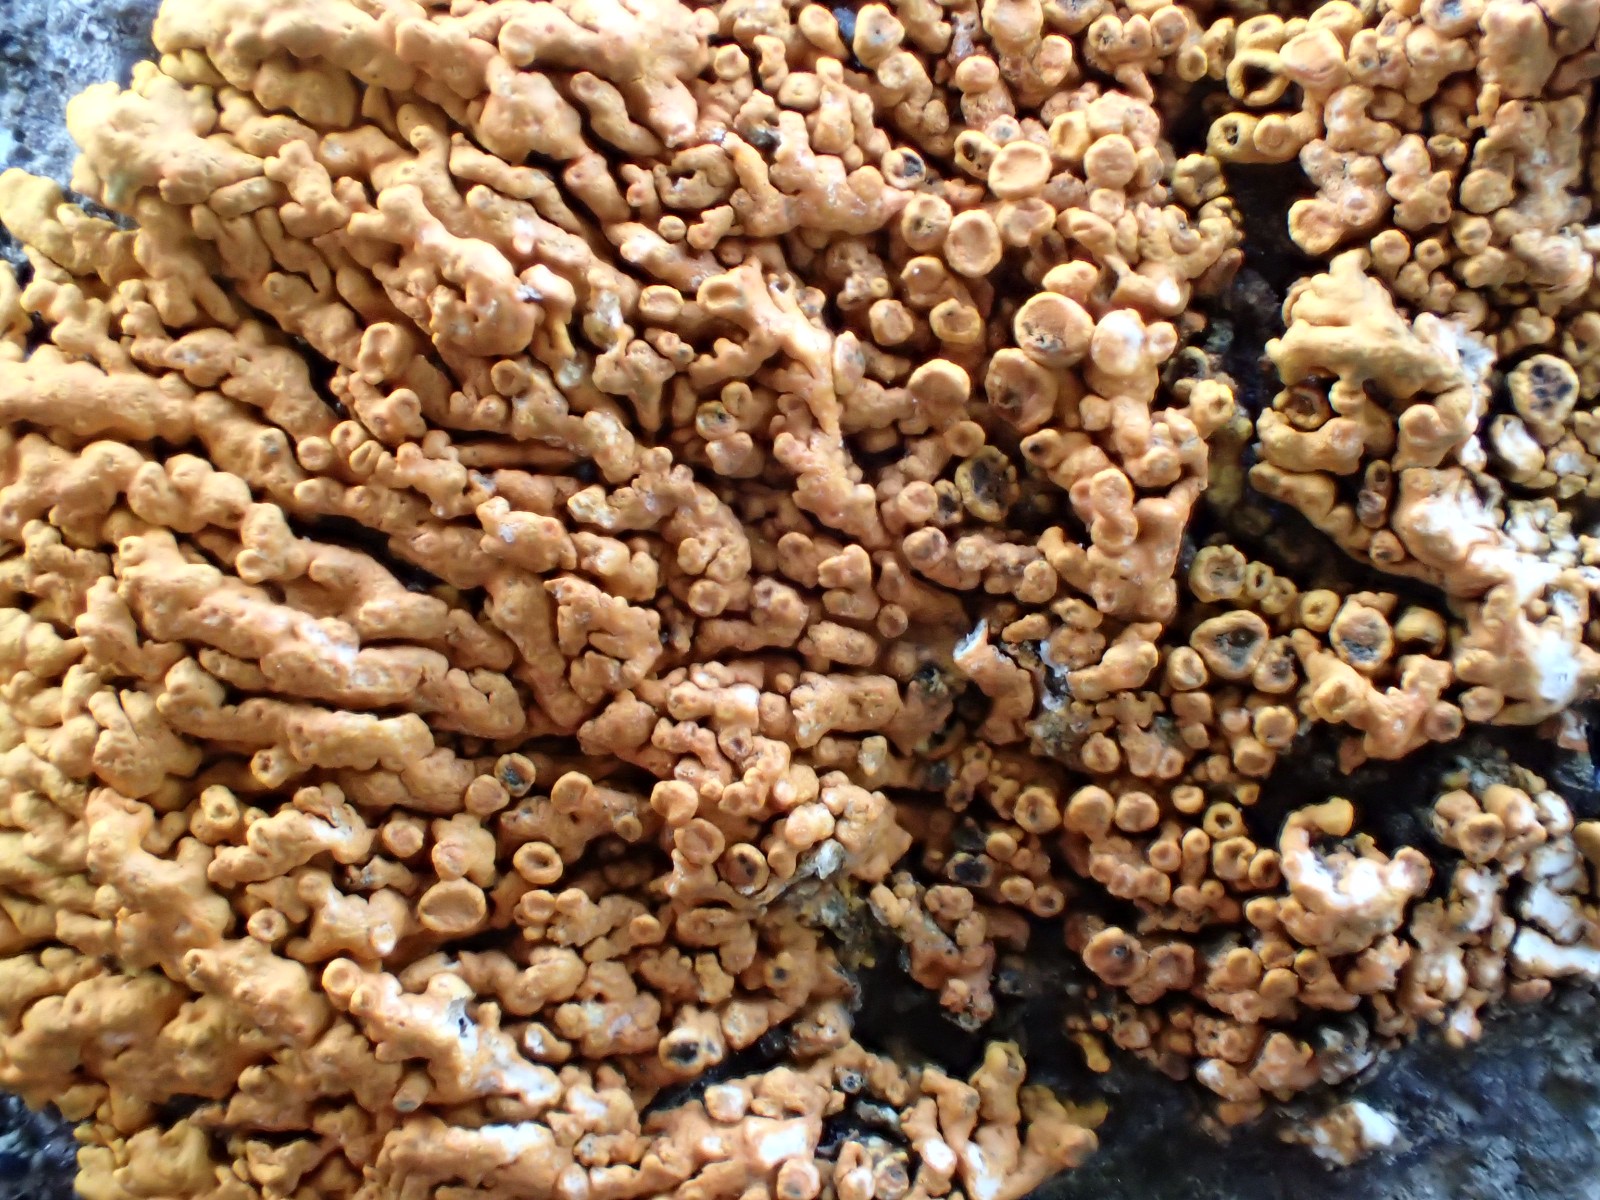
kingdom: Fungi
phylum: Ascomycota
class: Lecanoromycetes
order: Teloschistales
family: Teloschistaceae
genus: Xanthoria
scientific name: Xanthoria elegans
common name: fjeld-væggelav
